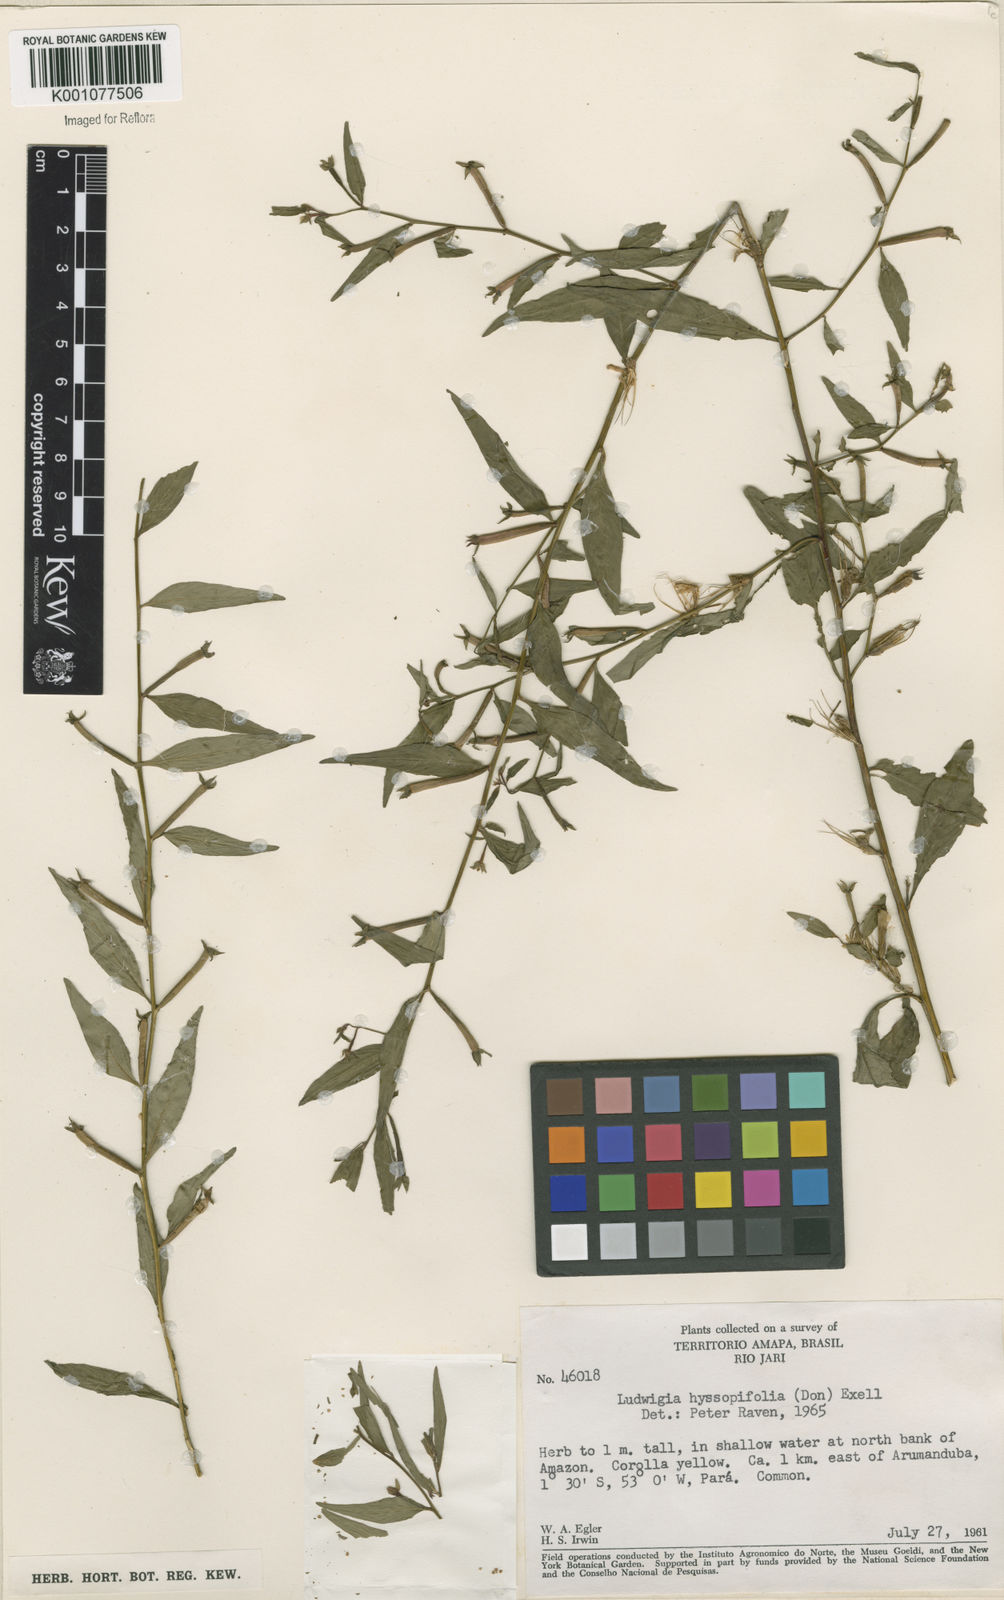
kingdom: Plantae
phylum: Tracheophyta
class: Magnoliopsida
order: Myrtales
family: Onagraceae
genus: Ludwigia
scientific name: Ludwigia hyssopifolia
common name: Linear leaf water primrose
